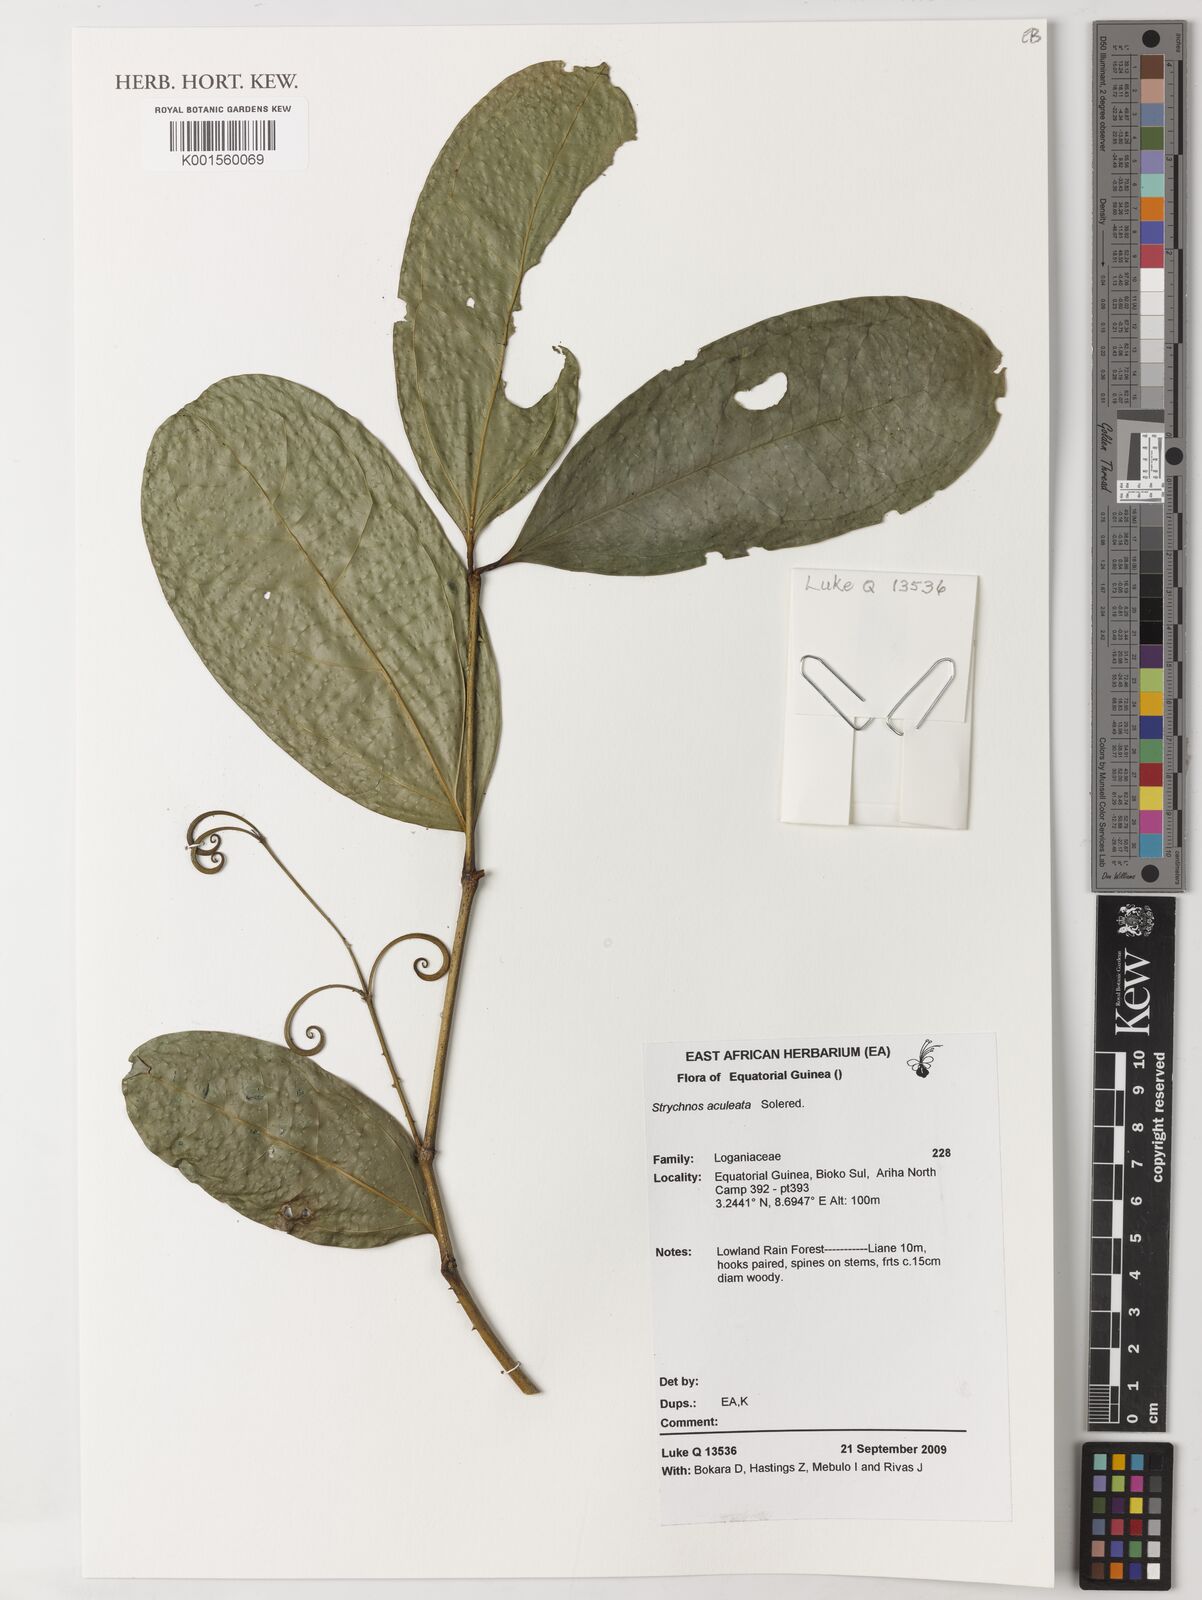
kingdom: Plantae
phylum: Tracheophyta
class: Magnoliopsida
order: Gentianales
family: Loganiaceae
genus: Strychnos
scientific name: Strychnos aculeata
